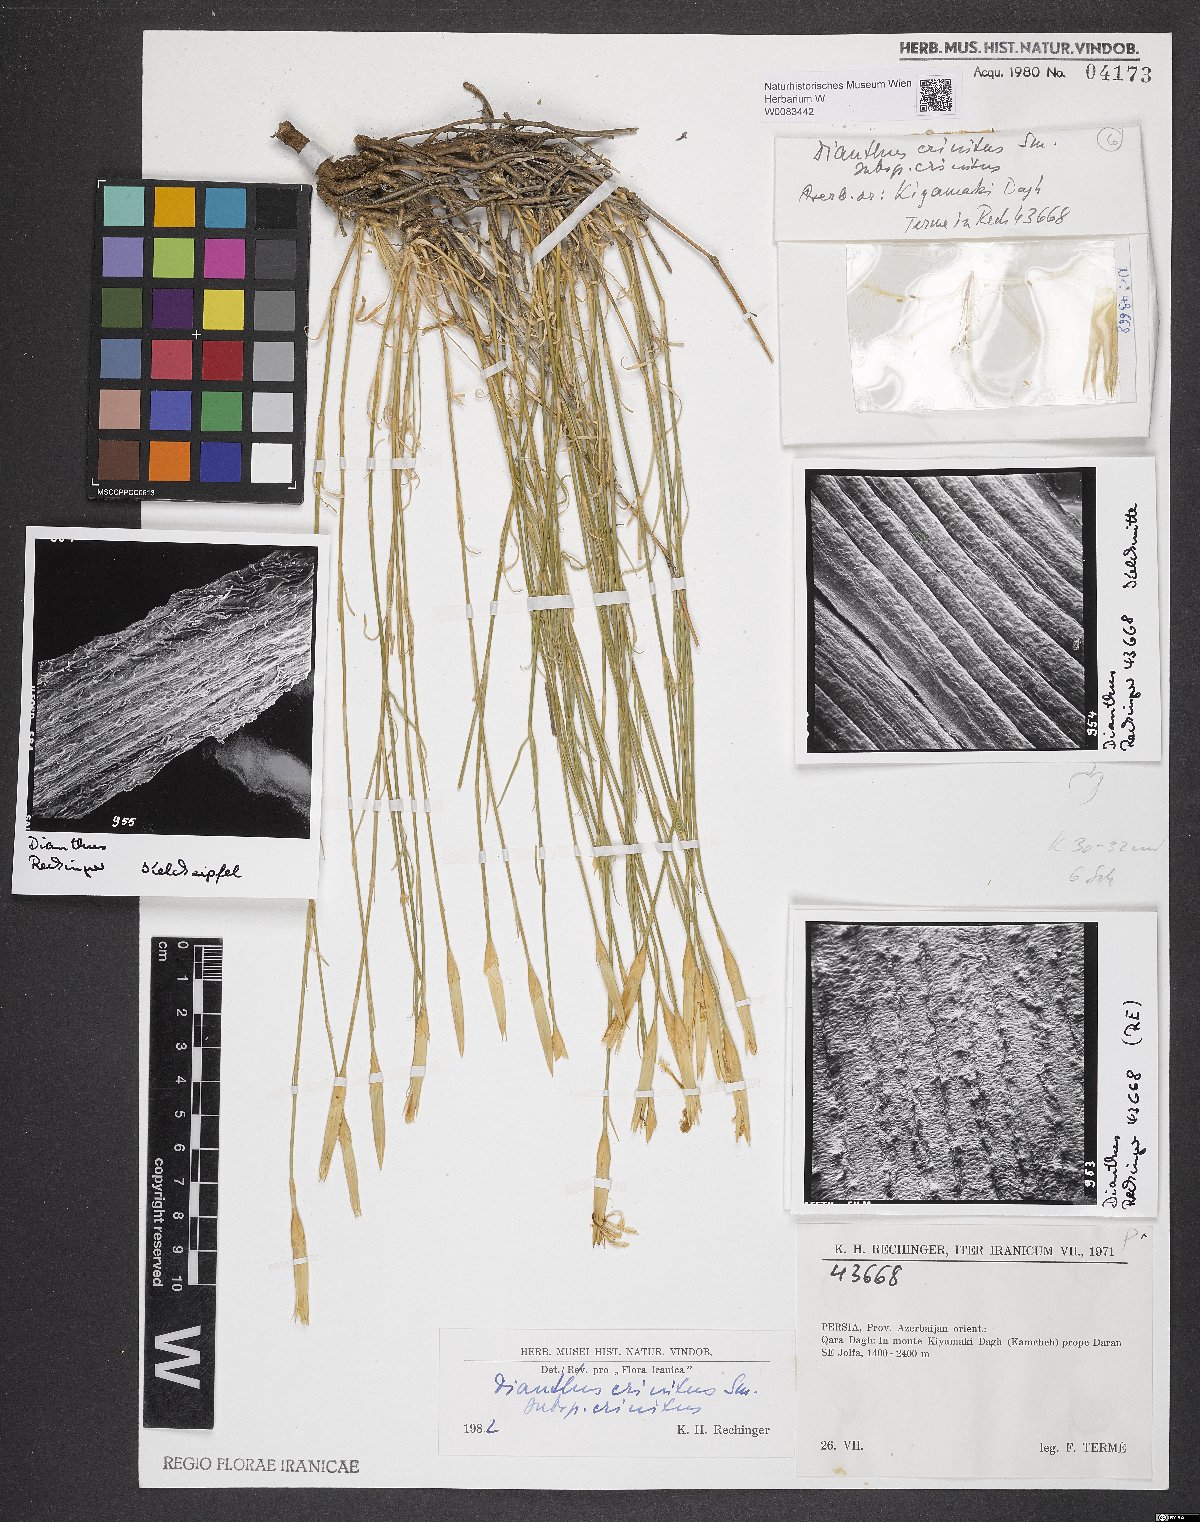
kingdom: Plantae
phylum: Tracheophyta
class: Magnoliopsida
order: Caryophyllales
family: Caryophyllaceae
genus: Dianthus
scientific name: Dianthus crinitus
